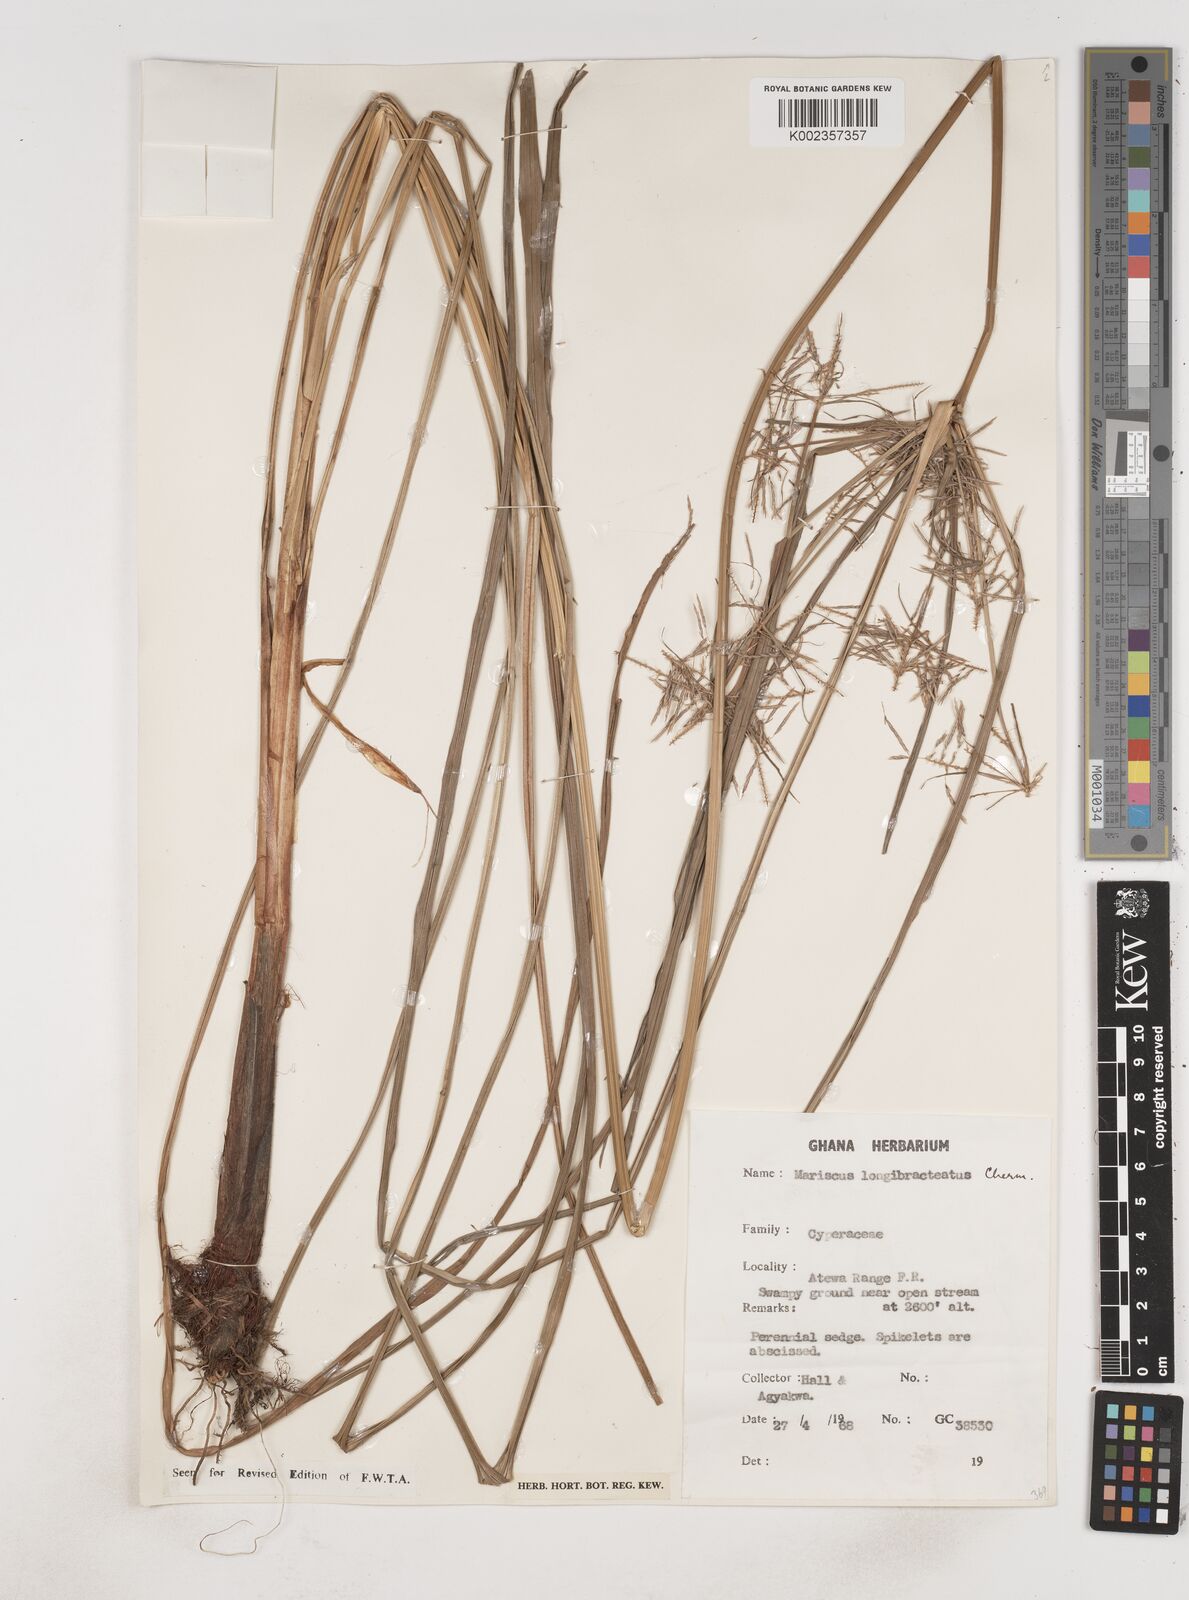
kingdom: Plantae
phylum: Tracheophyta
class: Liliopsida
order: Poales
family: Cyperaceae
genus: Cyperus
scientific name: Cyperus distans
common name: Slender cyperus
